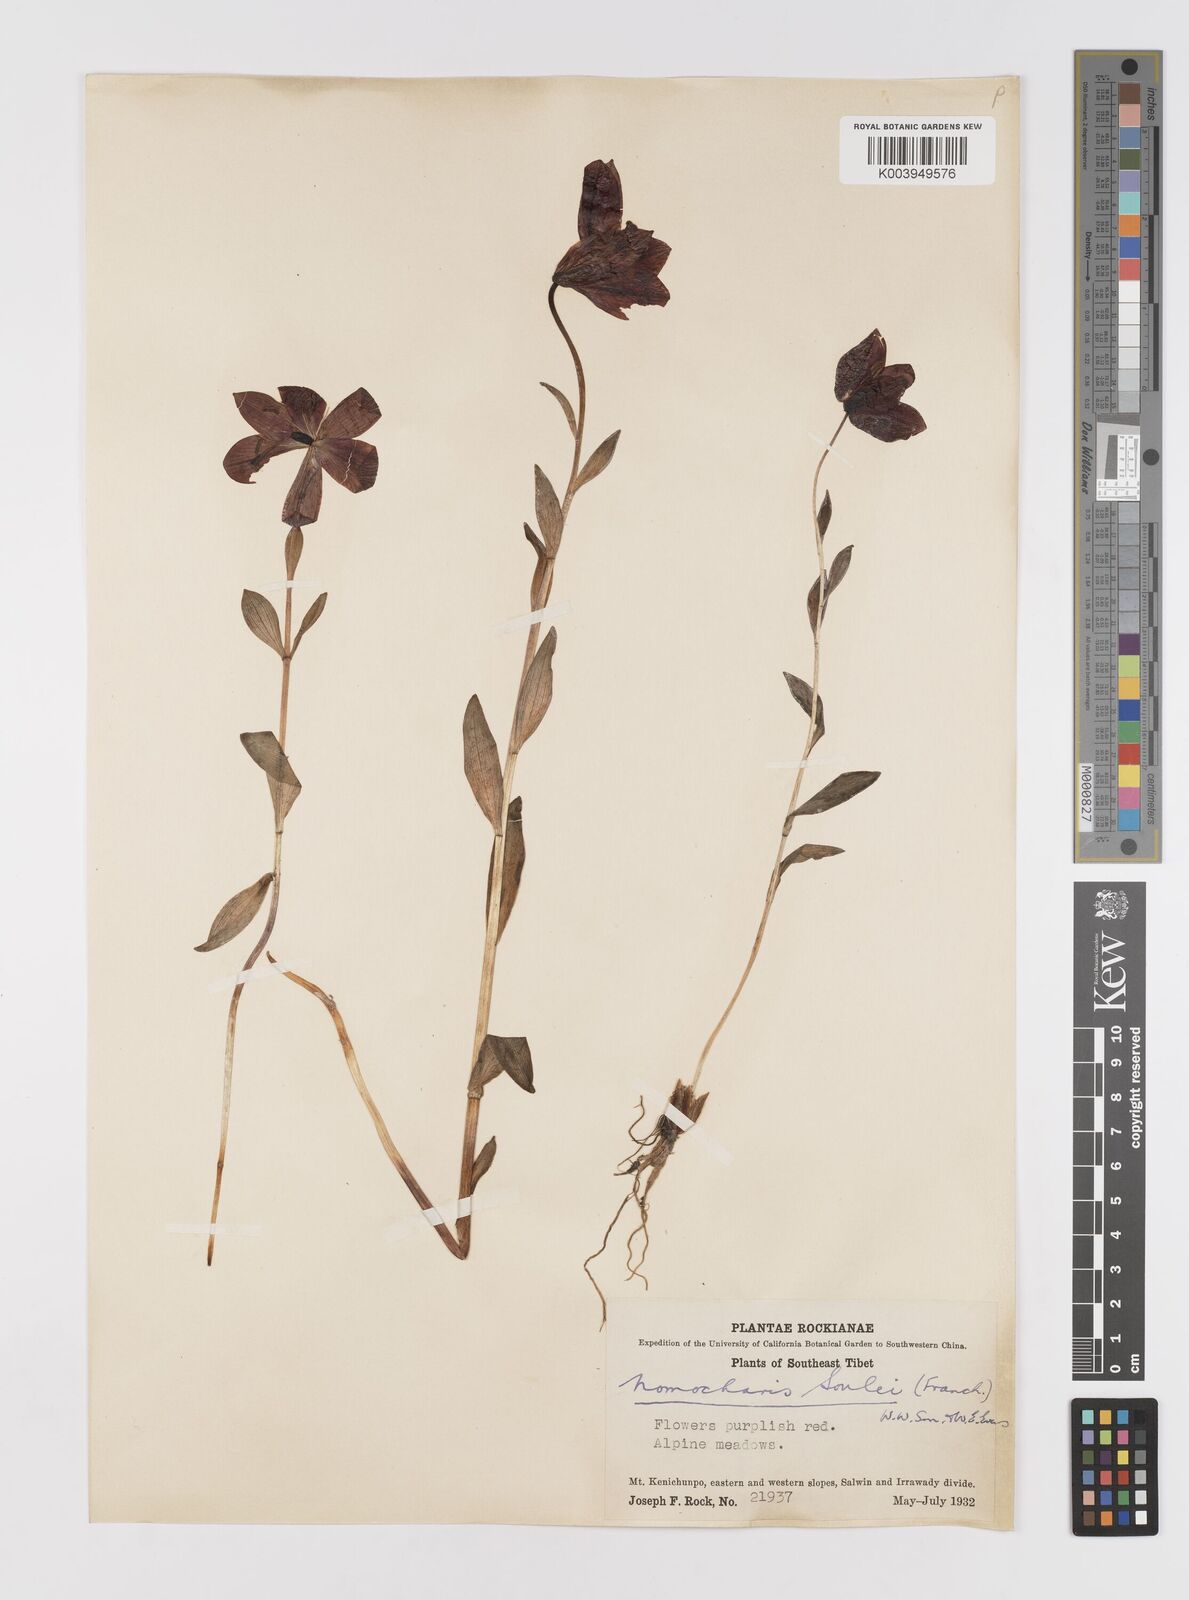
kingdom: Plantae
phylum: Tracheophyta
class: Liliopsida
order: Liliales
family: Liliaceae
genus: Lilium
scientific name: Lilium souliei
